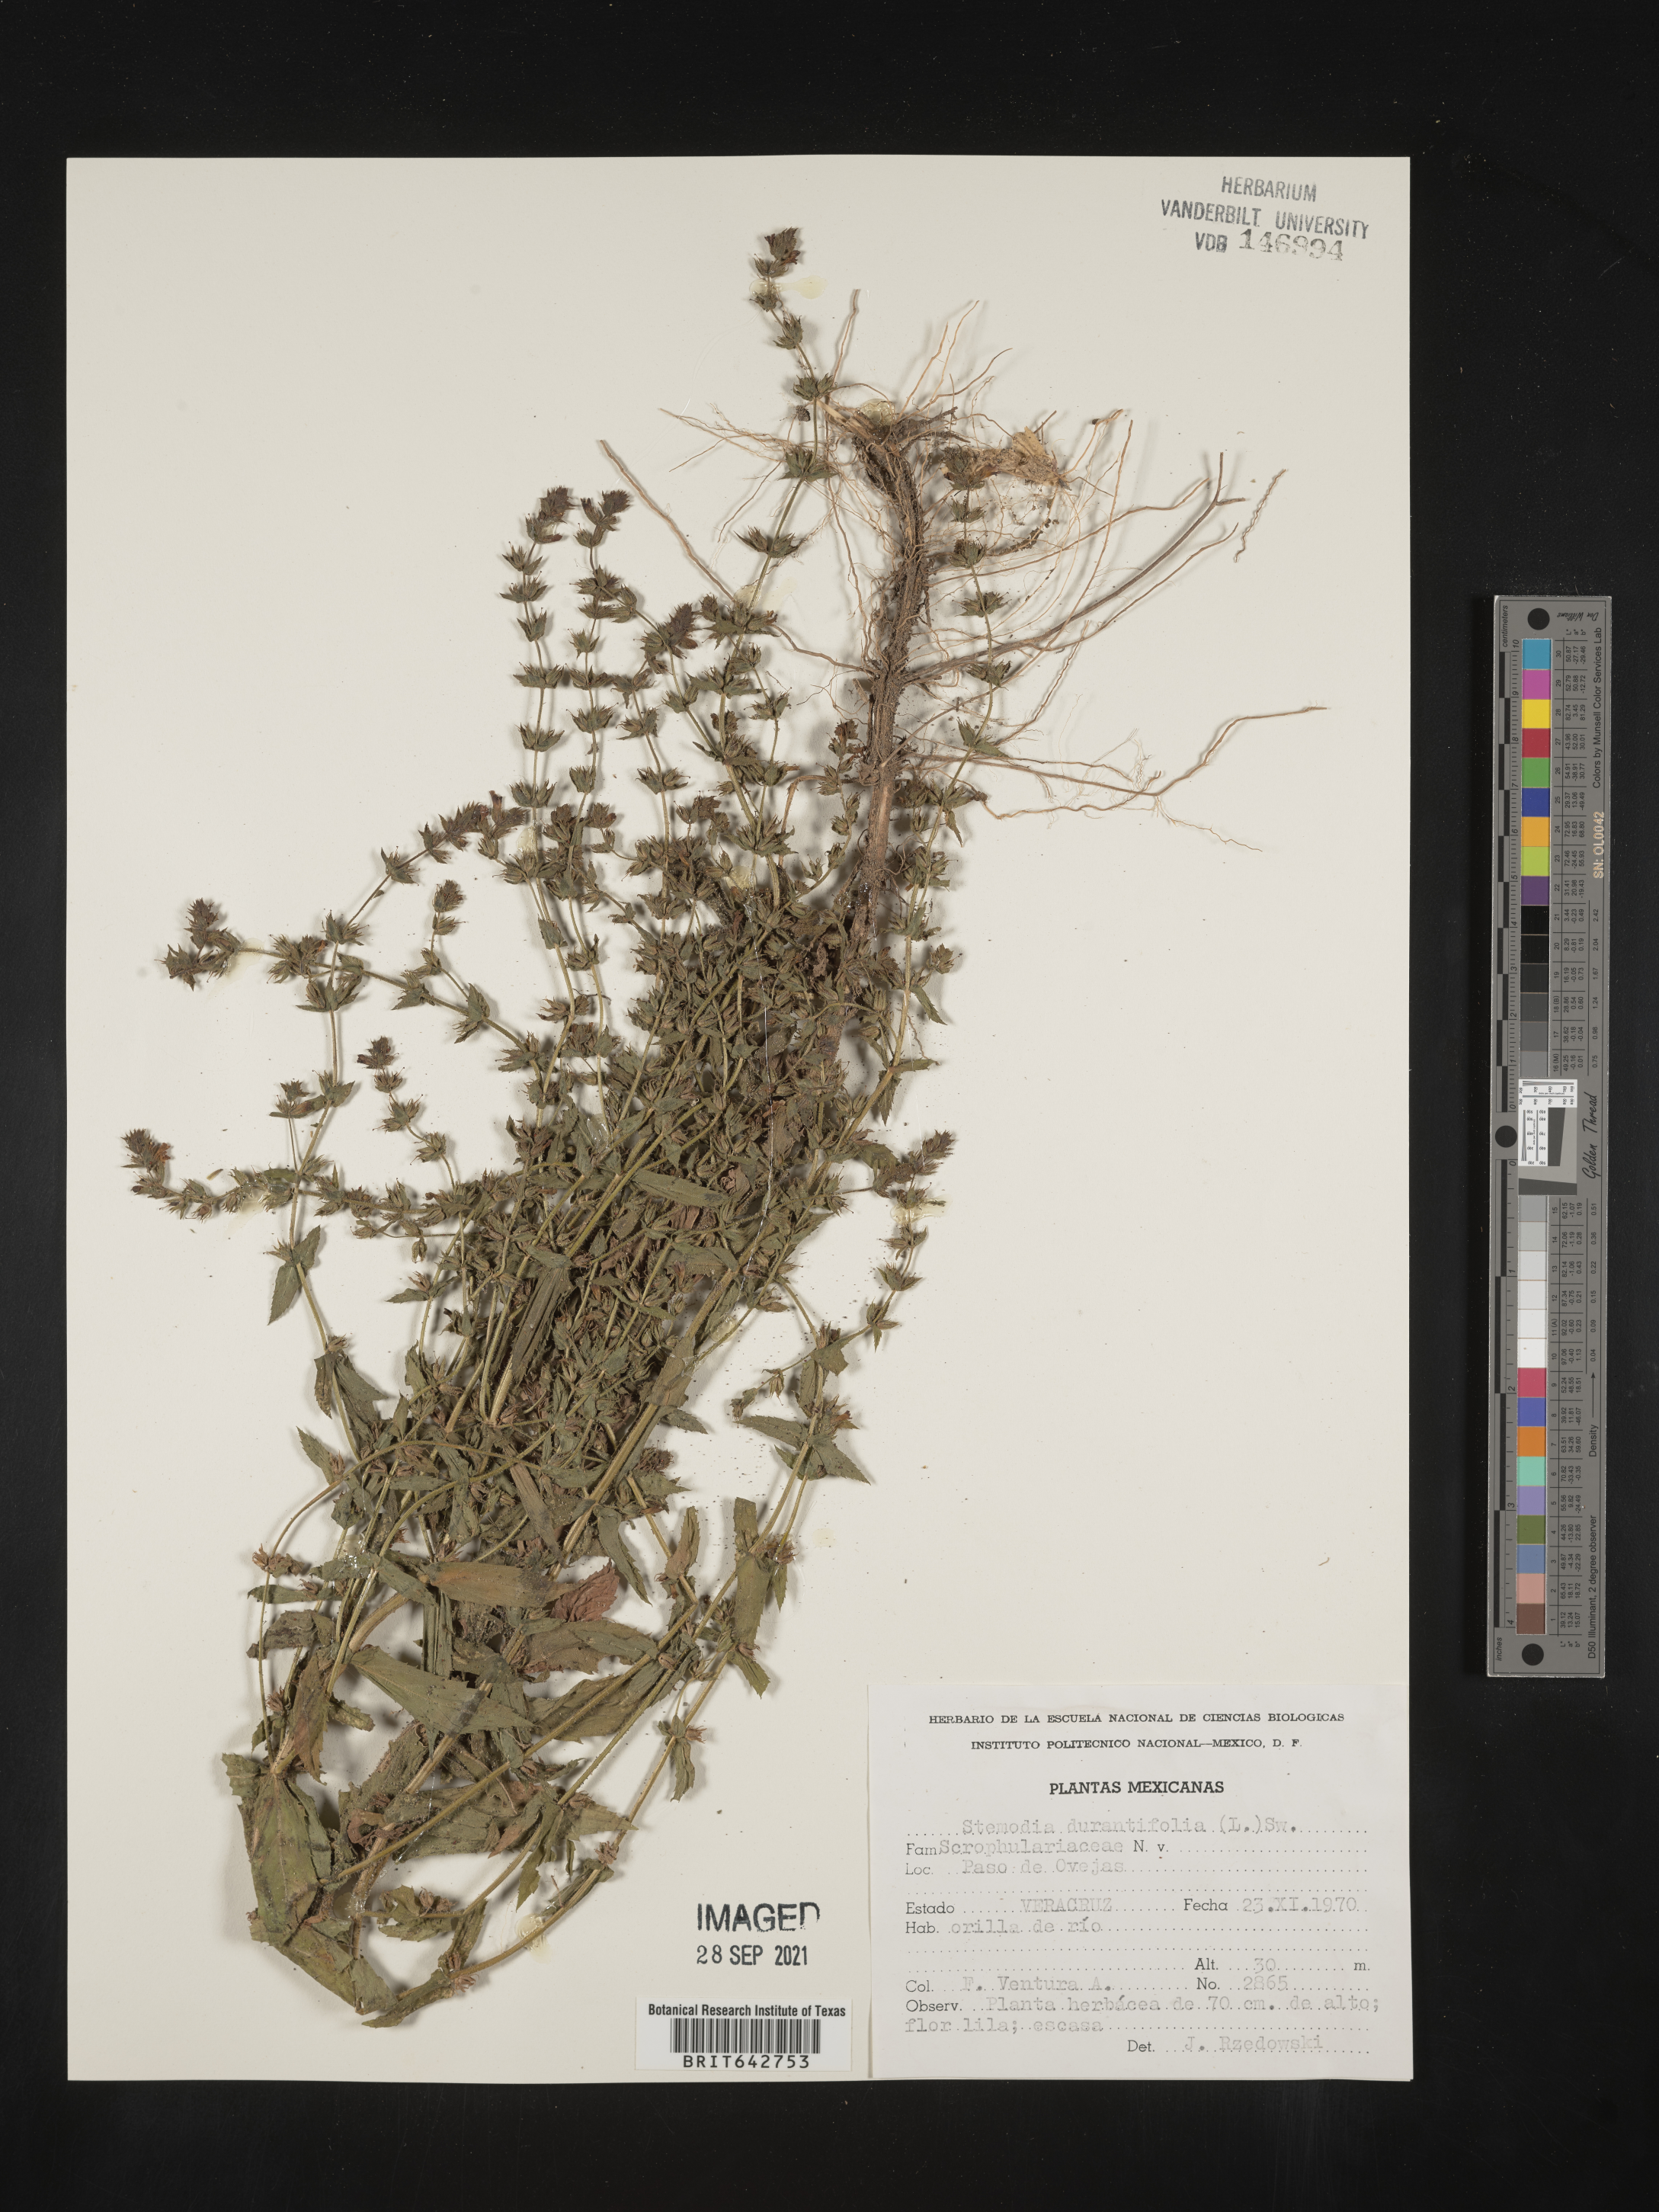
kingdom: Plantae
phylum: Tracheophyta
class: Magnoliopsida
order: Lamiales
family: Plantaginaceae
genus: Stemodia
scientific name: Stemodia
